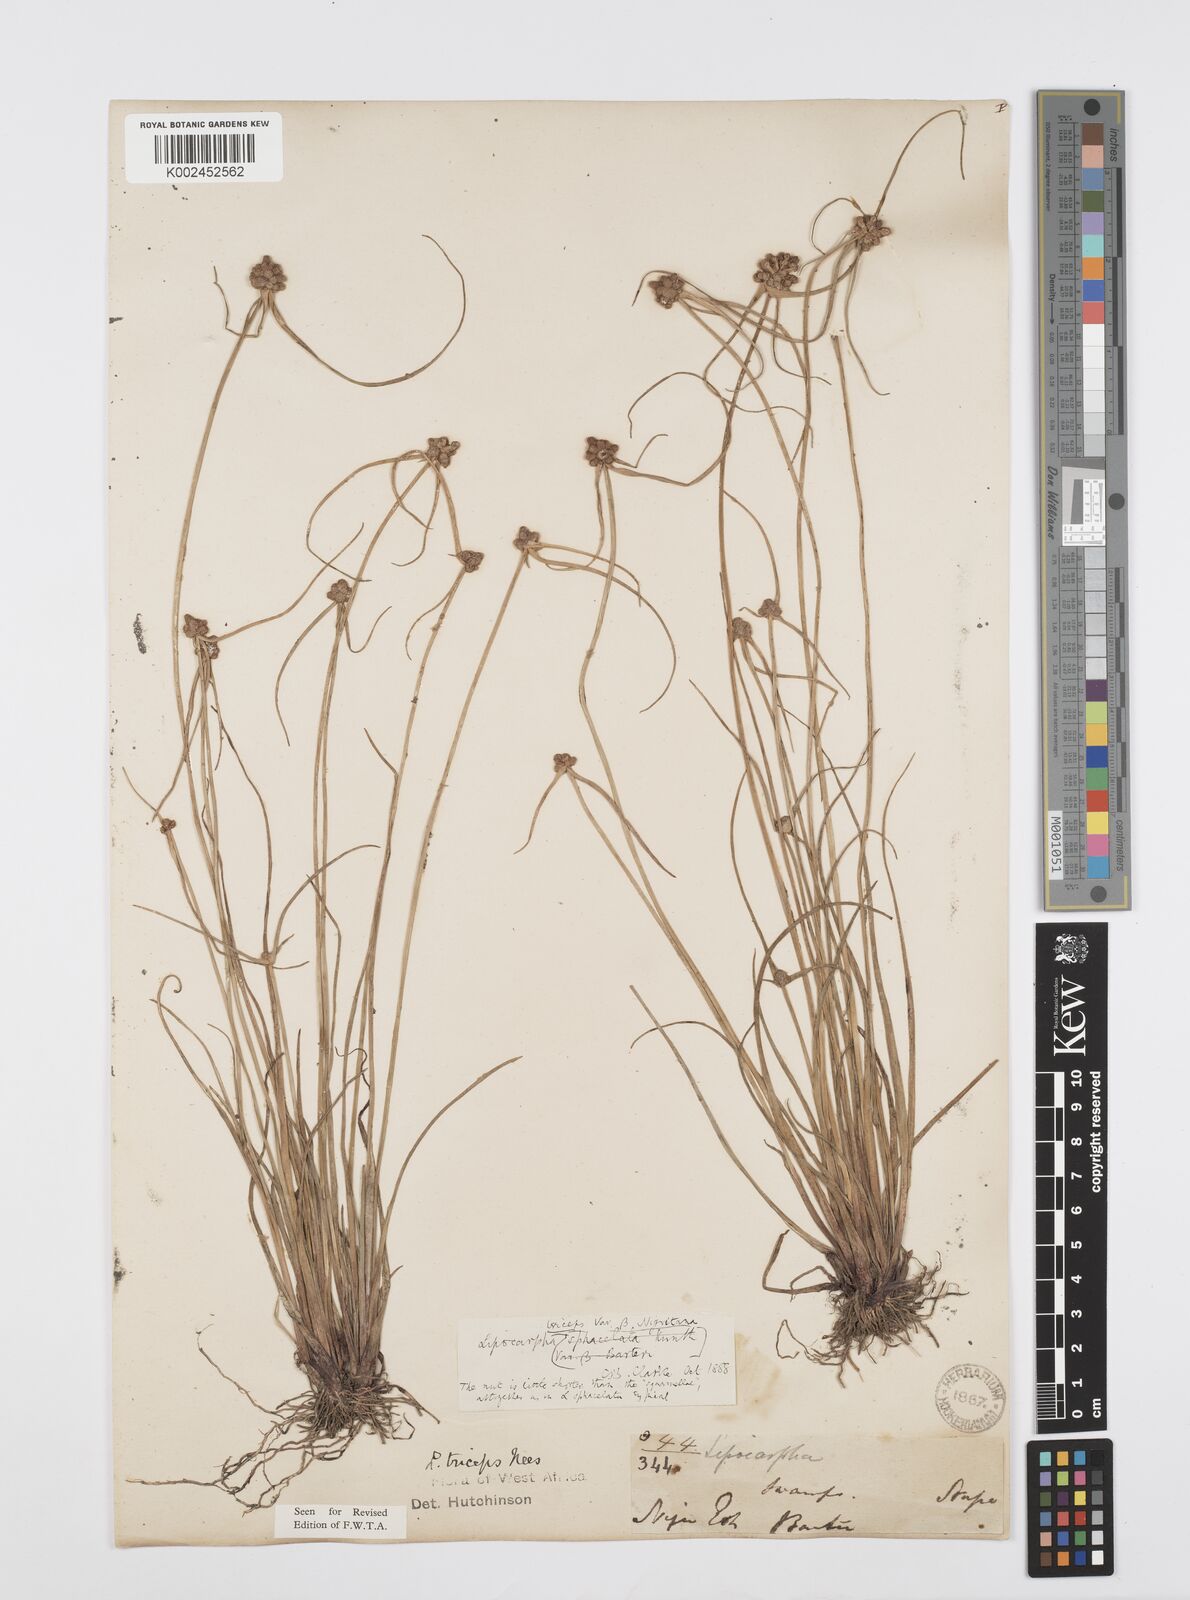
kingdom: Plantae
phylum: Tracheophyta
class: Liliopsida
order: Poales
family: Cyperaceae
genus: Cyperus
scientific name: Cyperus filiformis
